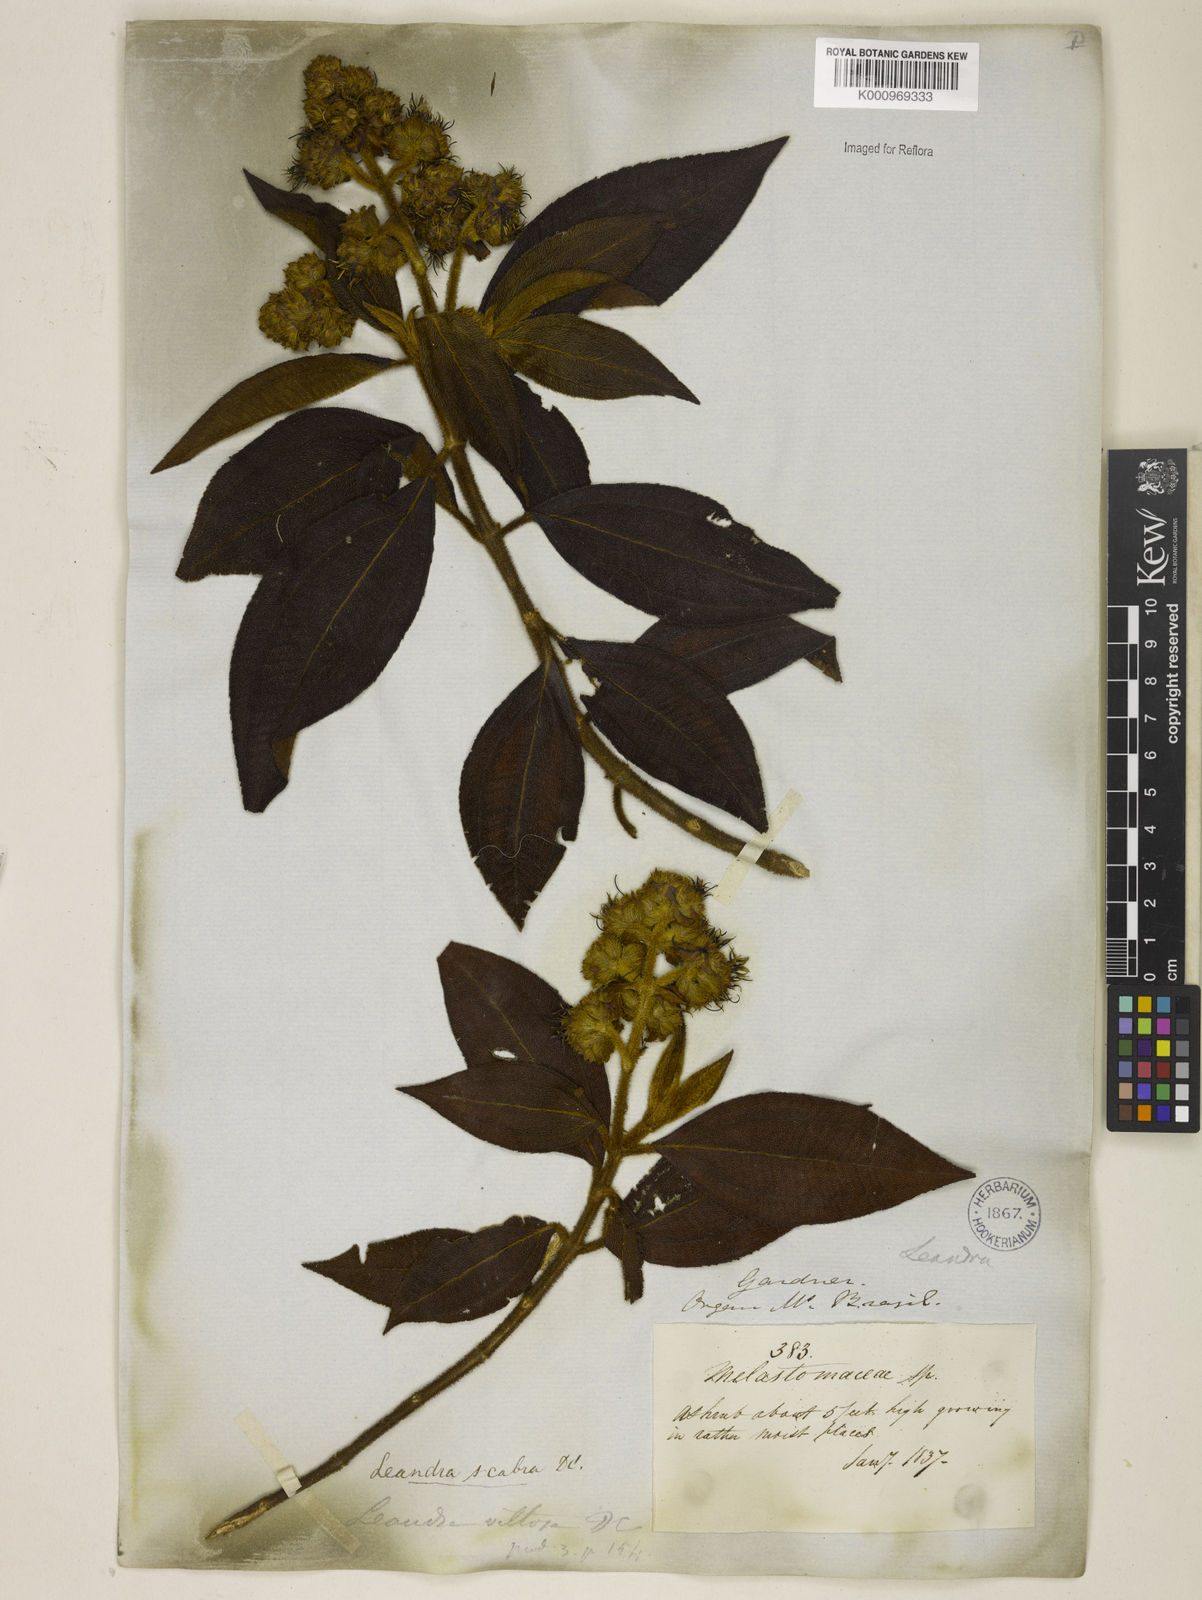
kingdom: Plantae
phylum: Tracheophyta
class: Magnoliopsida
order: Myrtales
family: Melastomataceae
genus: Miconia
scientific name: Miconia melastomoides
